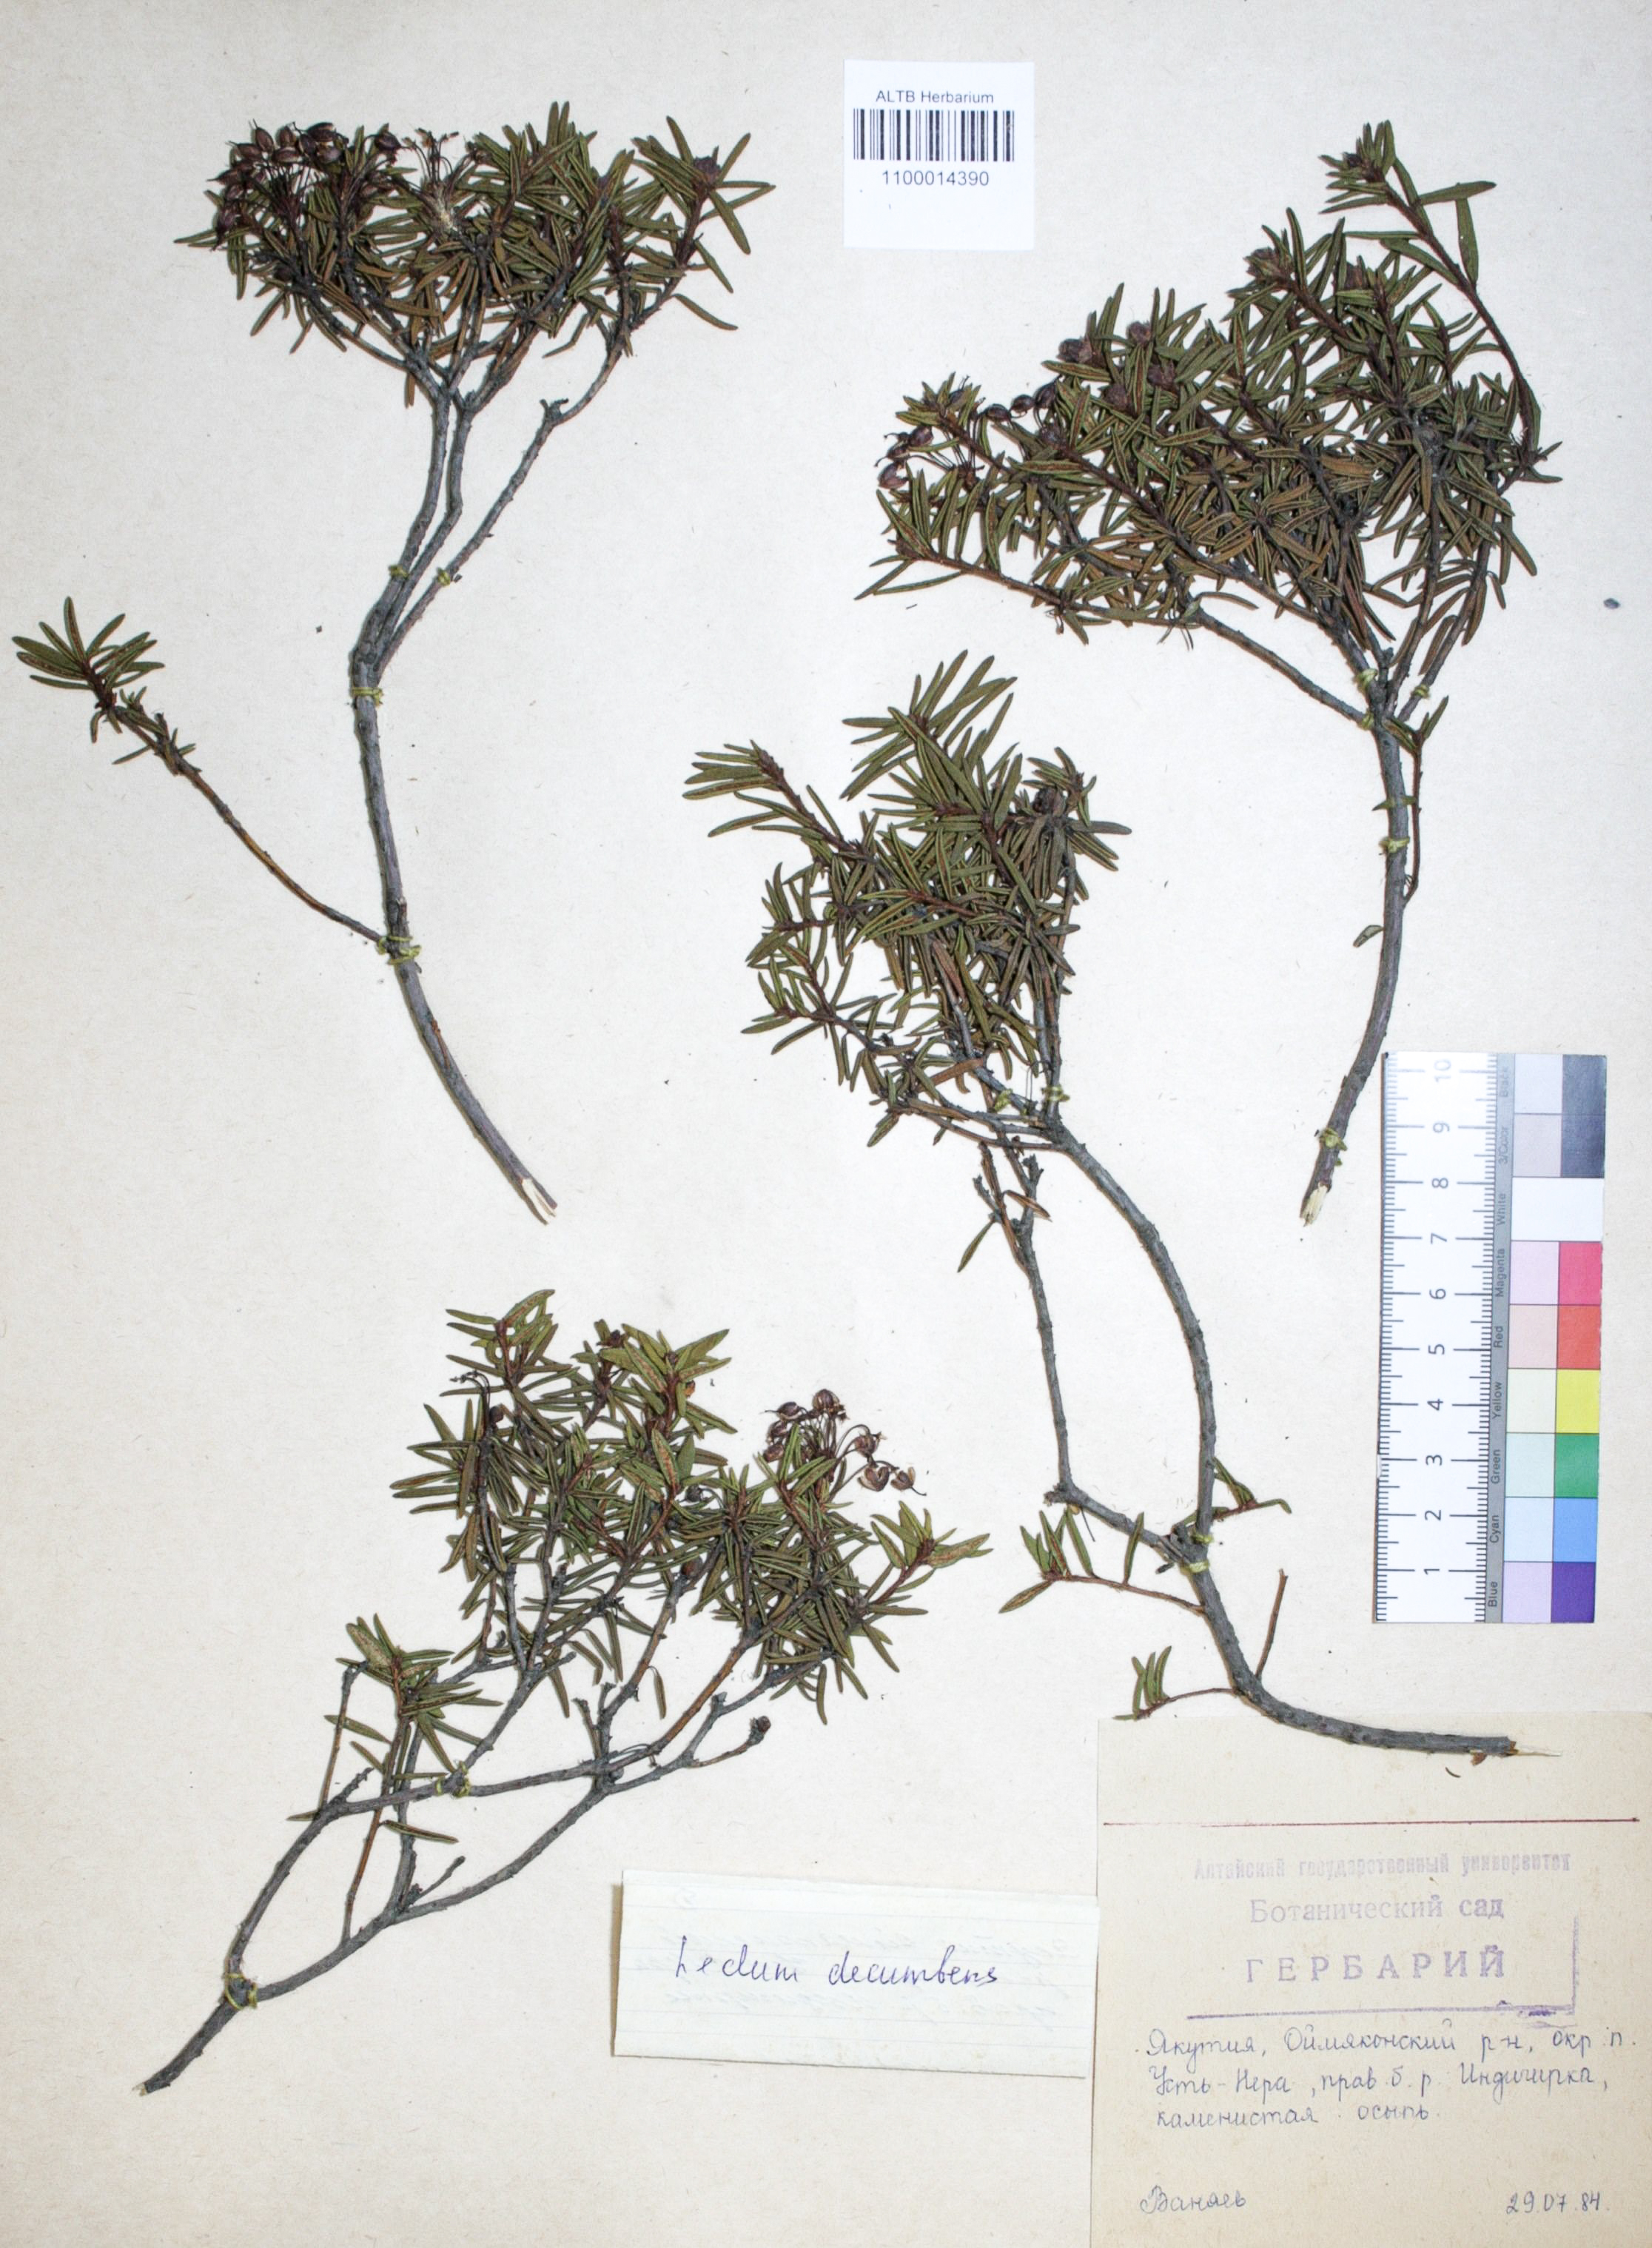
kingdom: Plantae
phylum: Tracheophyta
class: Magnoliopsida
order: Ericales
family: Ericaceae
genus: Rhododendron
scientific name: Rhododendron tomentosum
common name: Marsh labrador tea
